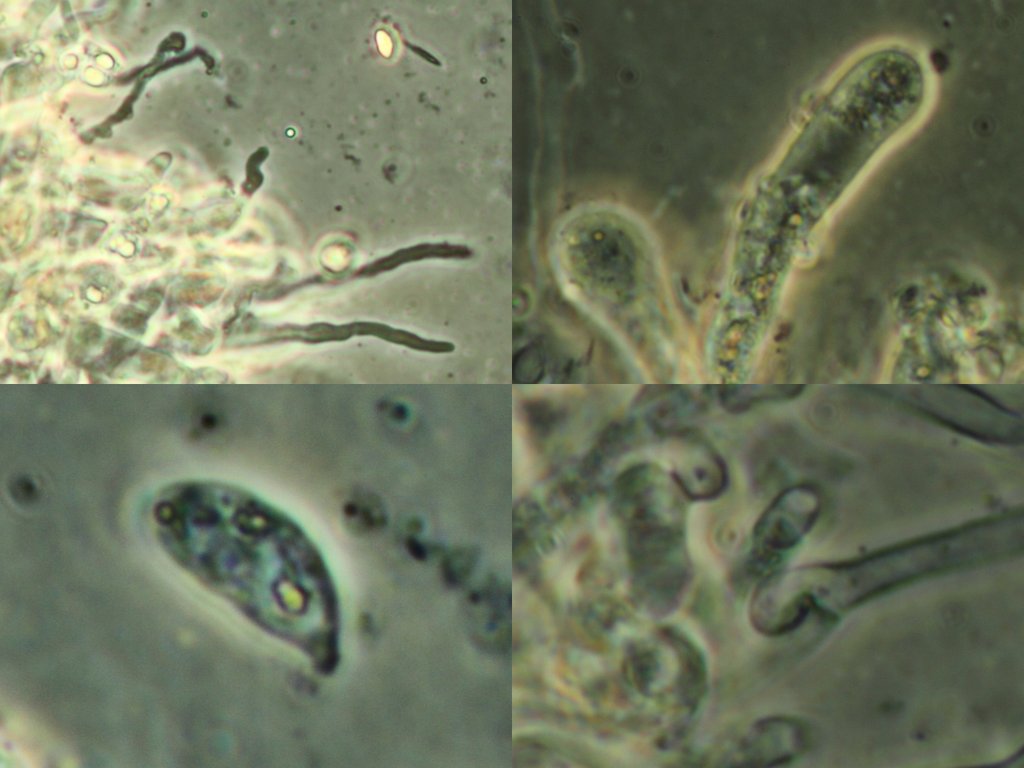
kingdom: Fungi
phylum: Basidiomycota
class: Agaricomycetes
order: Agaricales
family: Omphalotaceae
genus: Collybiopsis
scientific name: Collybiopsis peronata
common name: bestøvlet fladhat
